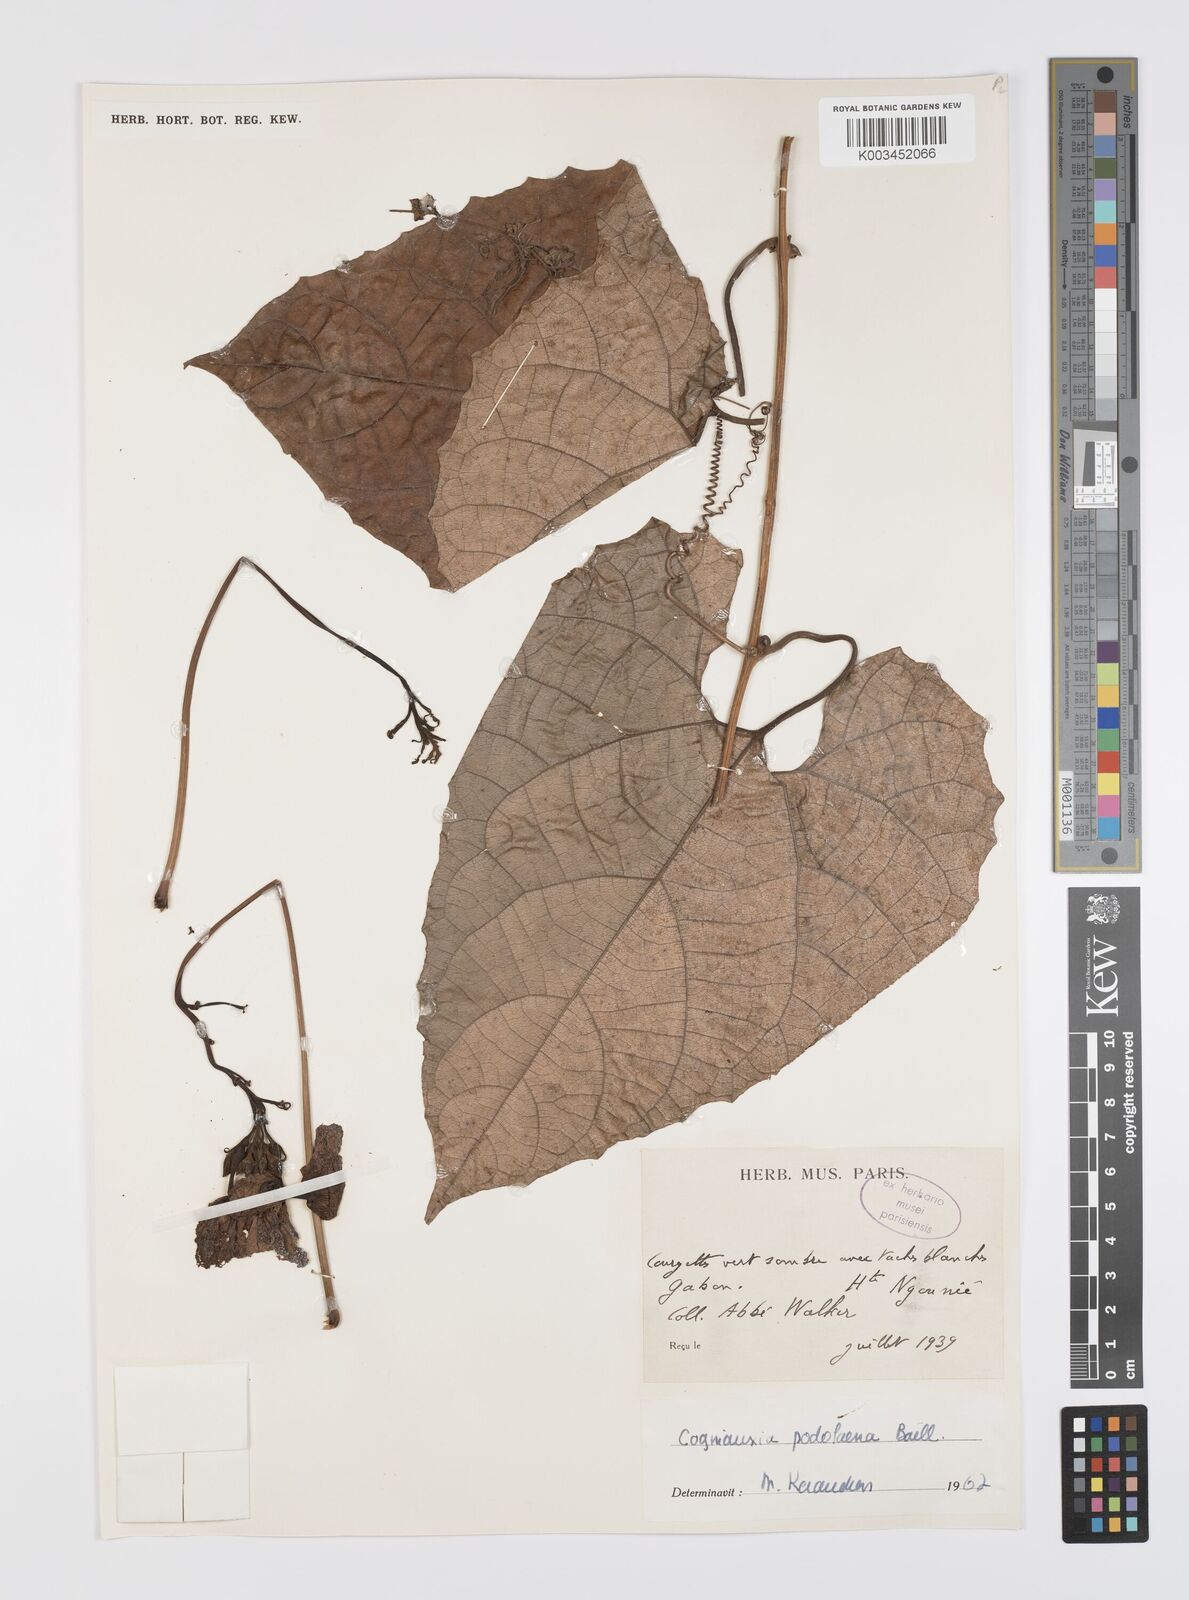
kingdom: Plantae
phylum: Tracheophyta
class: Magnoliopsida
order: Cucurbitales
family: Cucurbitaceae
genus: Cogniauxia
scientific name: Cogniauxia podolaena
